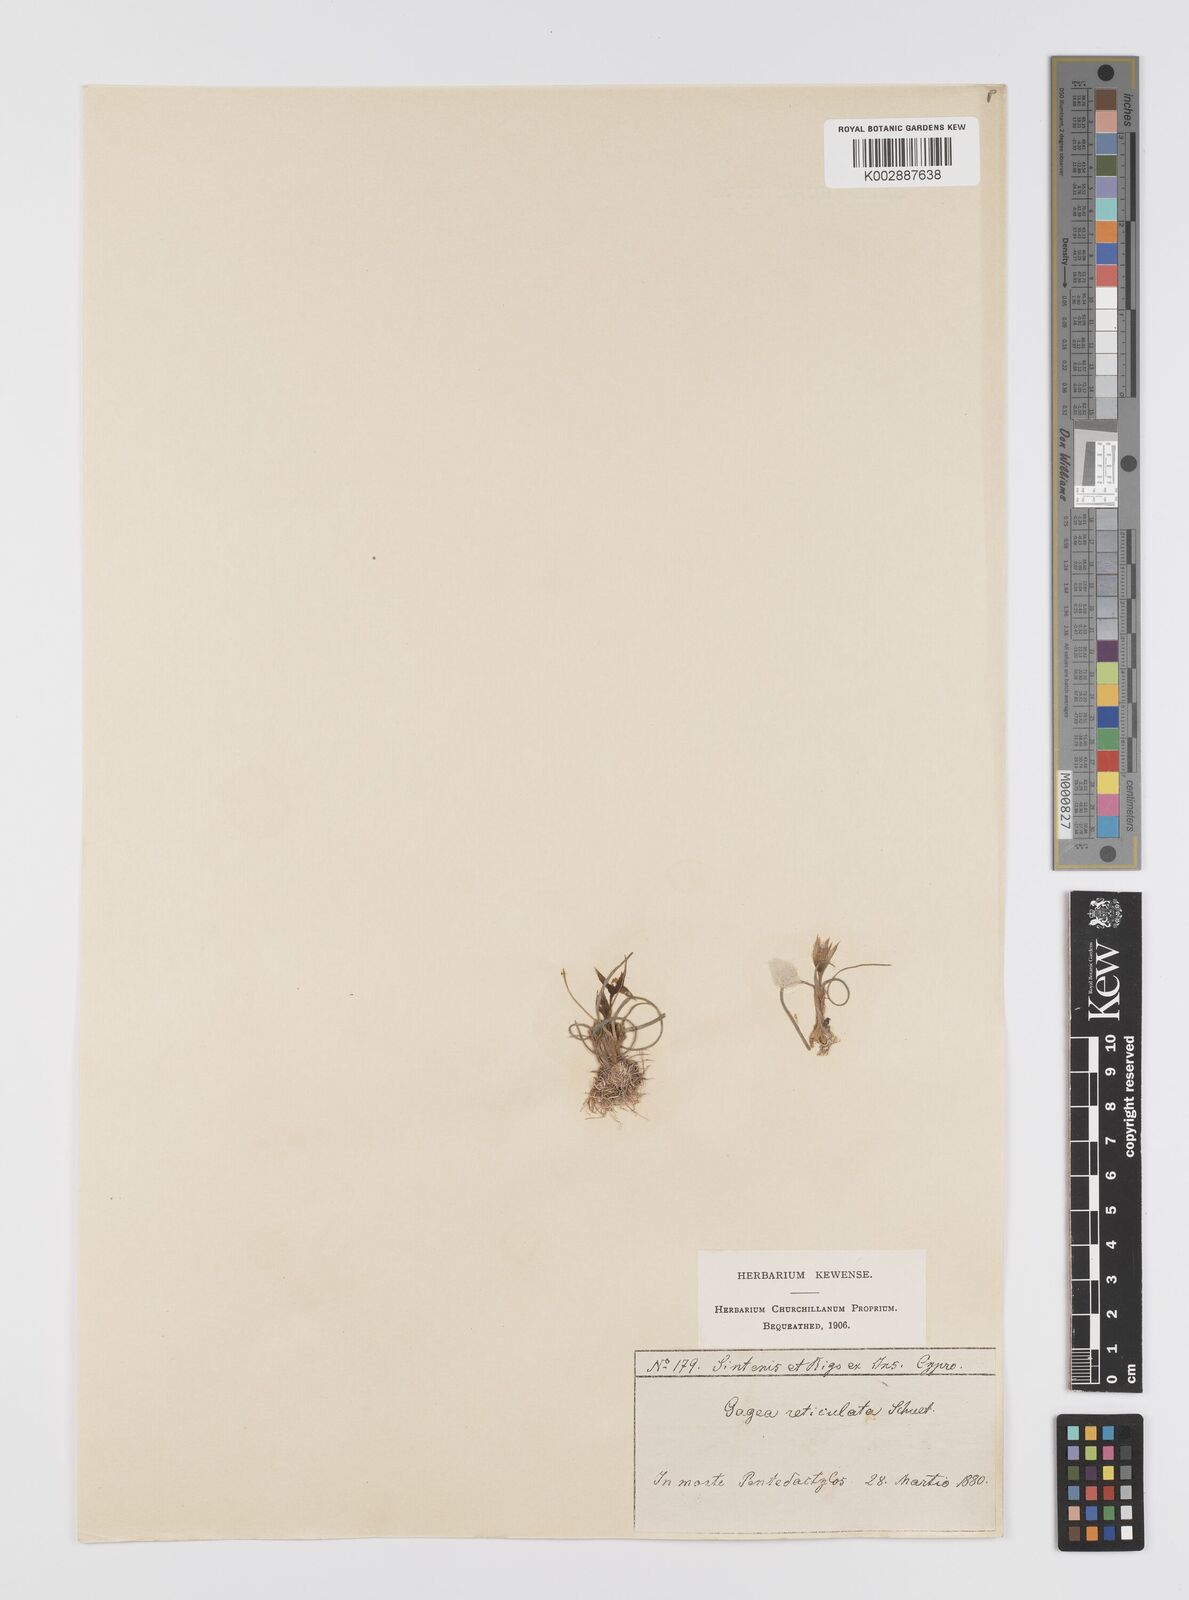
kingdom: Plantae
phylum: Tracheophyta
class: Liliopsida
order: Liliales
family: Liliaceae
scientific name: Liliaceae
